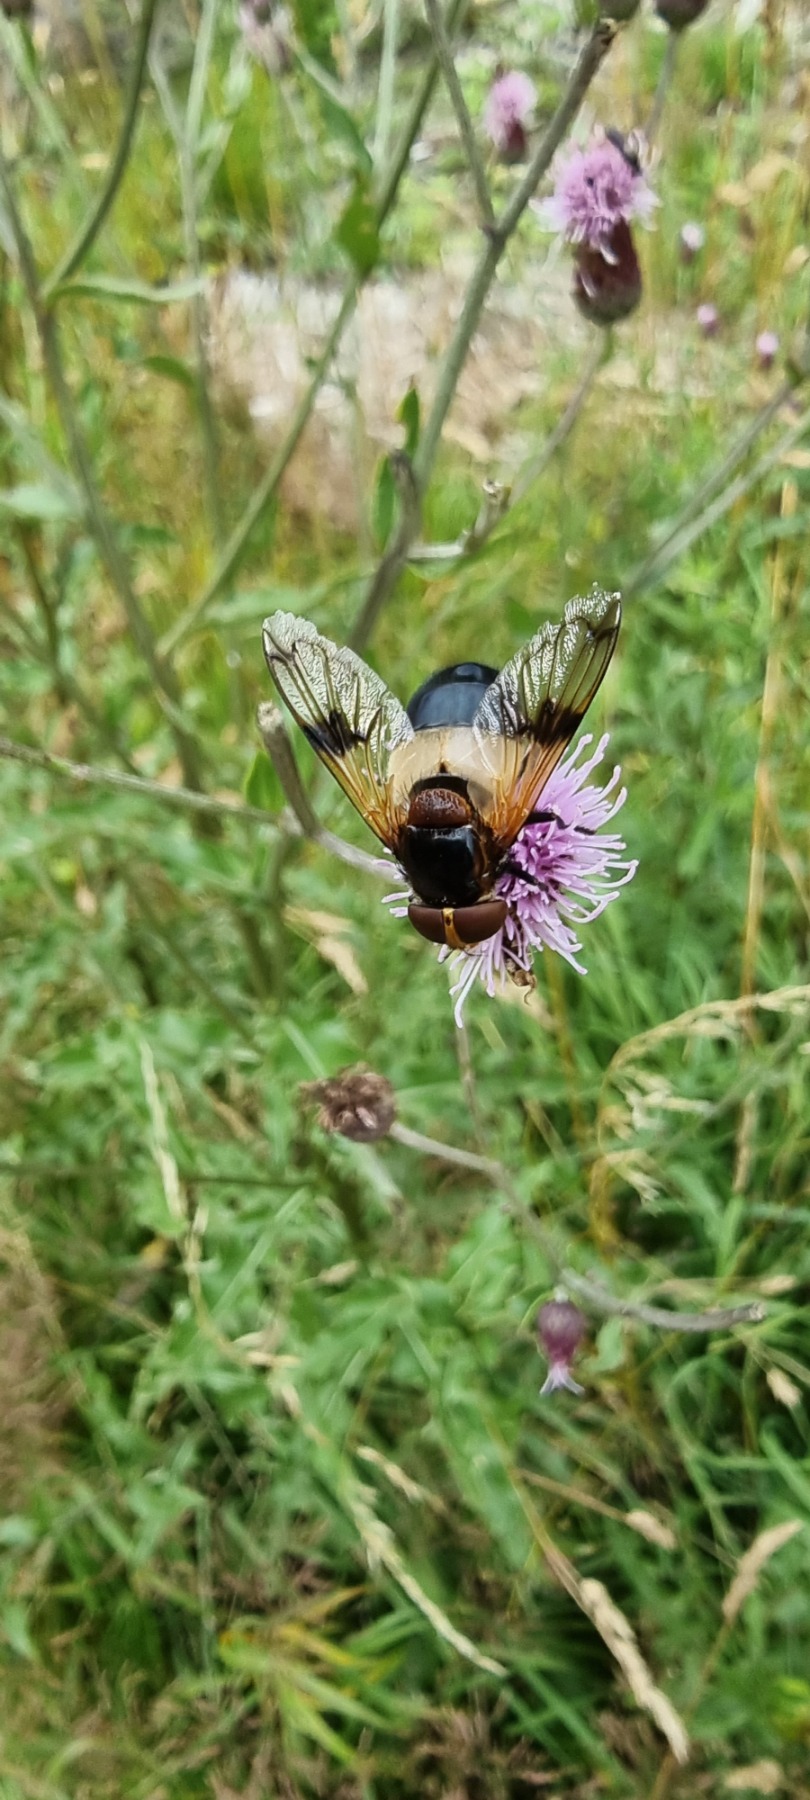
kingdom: Animalia
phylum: Arthropoda
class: Insecta
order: Diptera
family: Syrphidae
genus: Volucella
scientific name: Volucella pellucens
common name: Hvidbåndet humlesvirreflue
